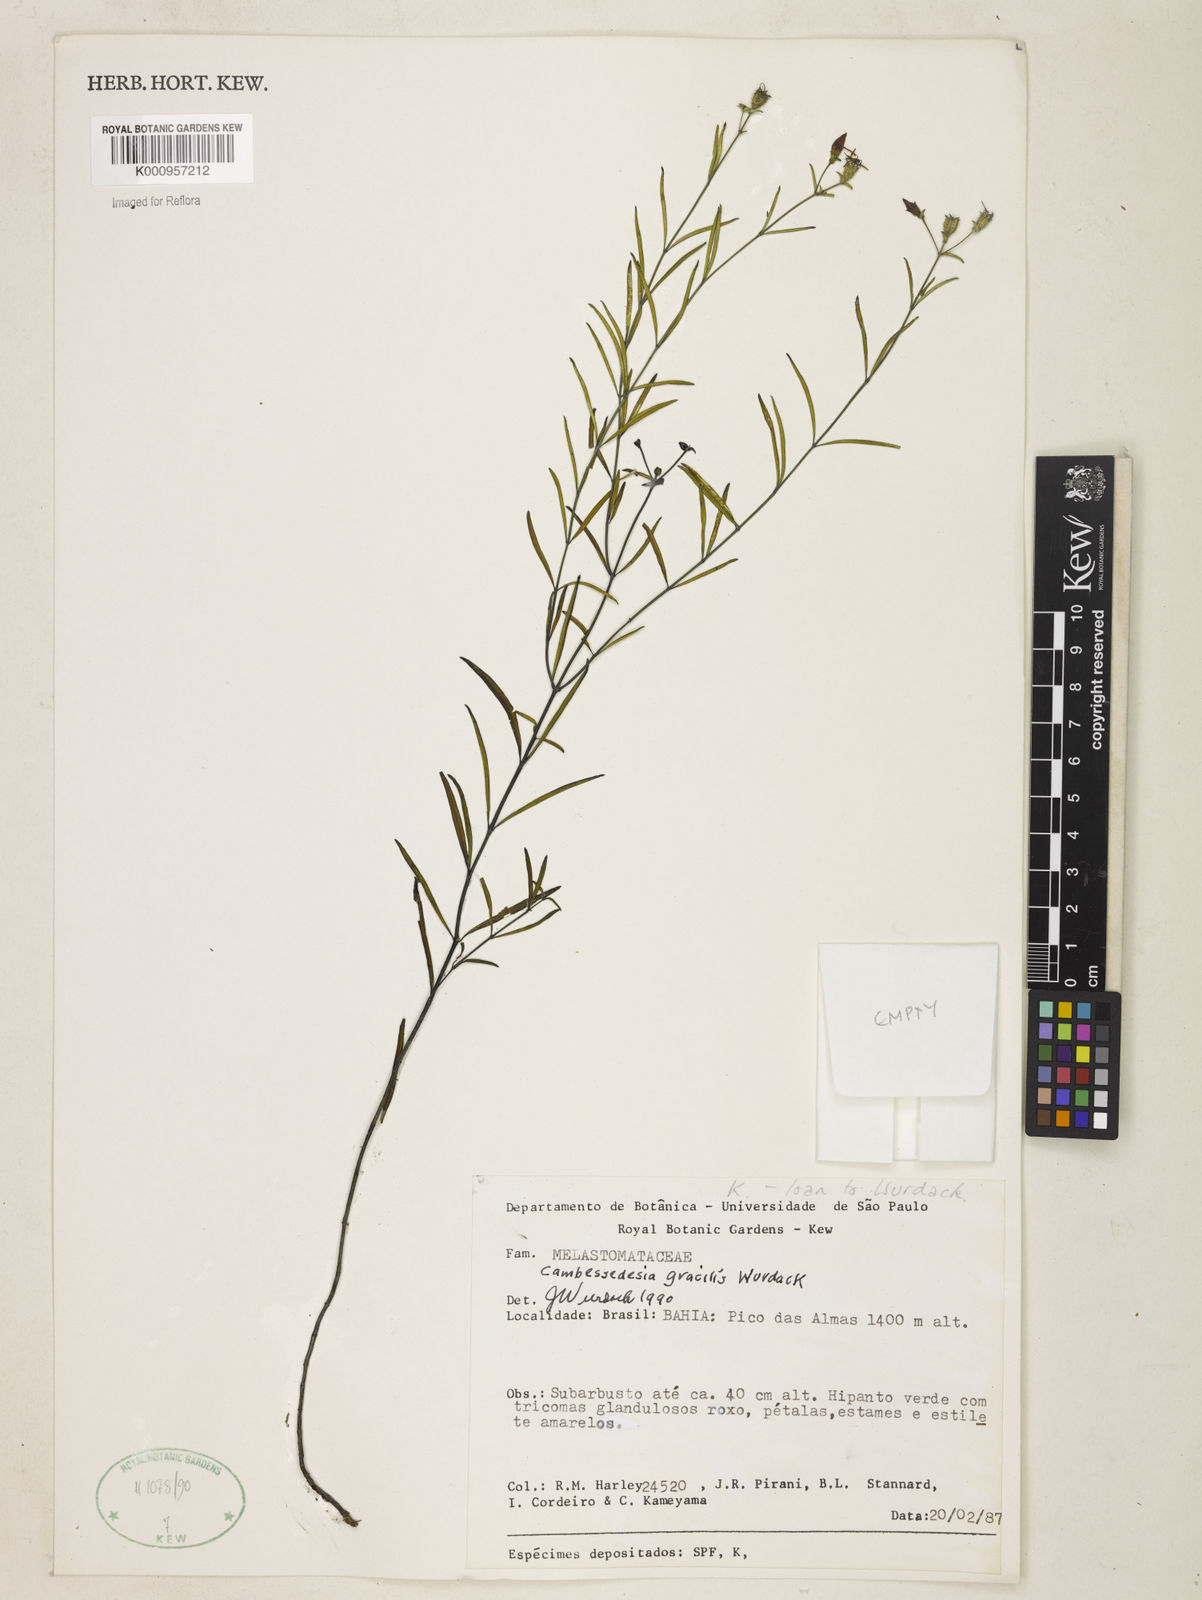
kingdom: Plantae
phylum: Tracheophyta
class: Magnoliopsida
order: Myrtales
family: Melastomataceae
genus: Cambessedesia
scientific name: Cambessedesia gracilis
